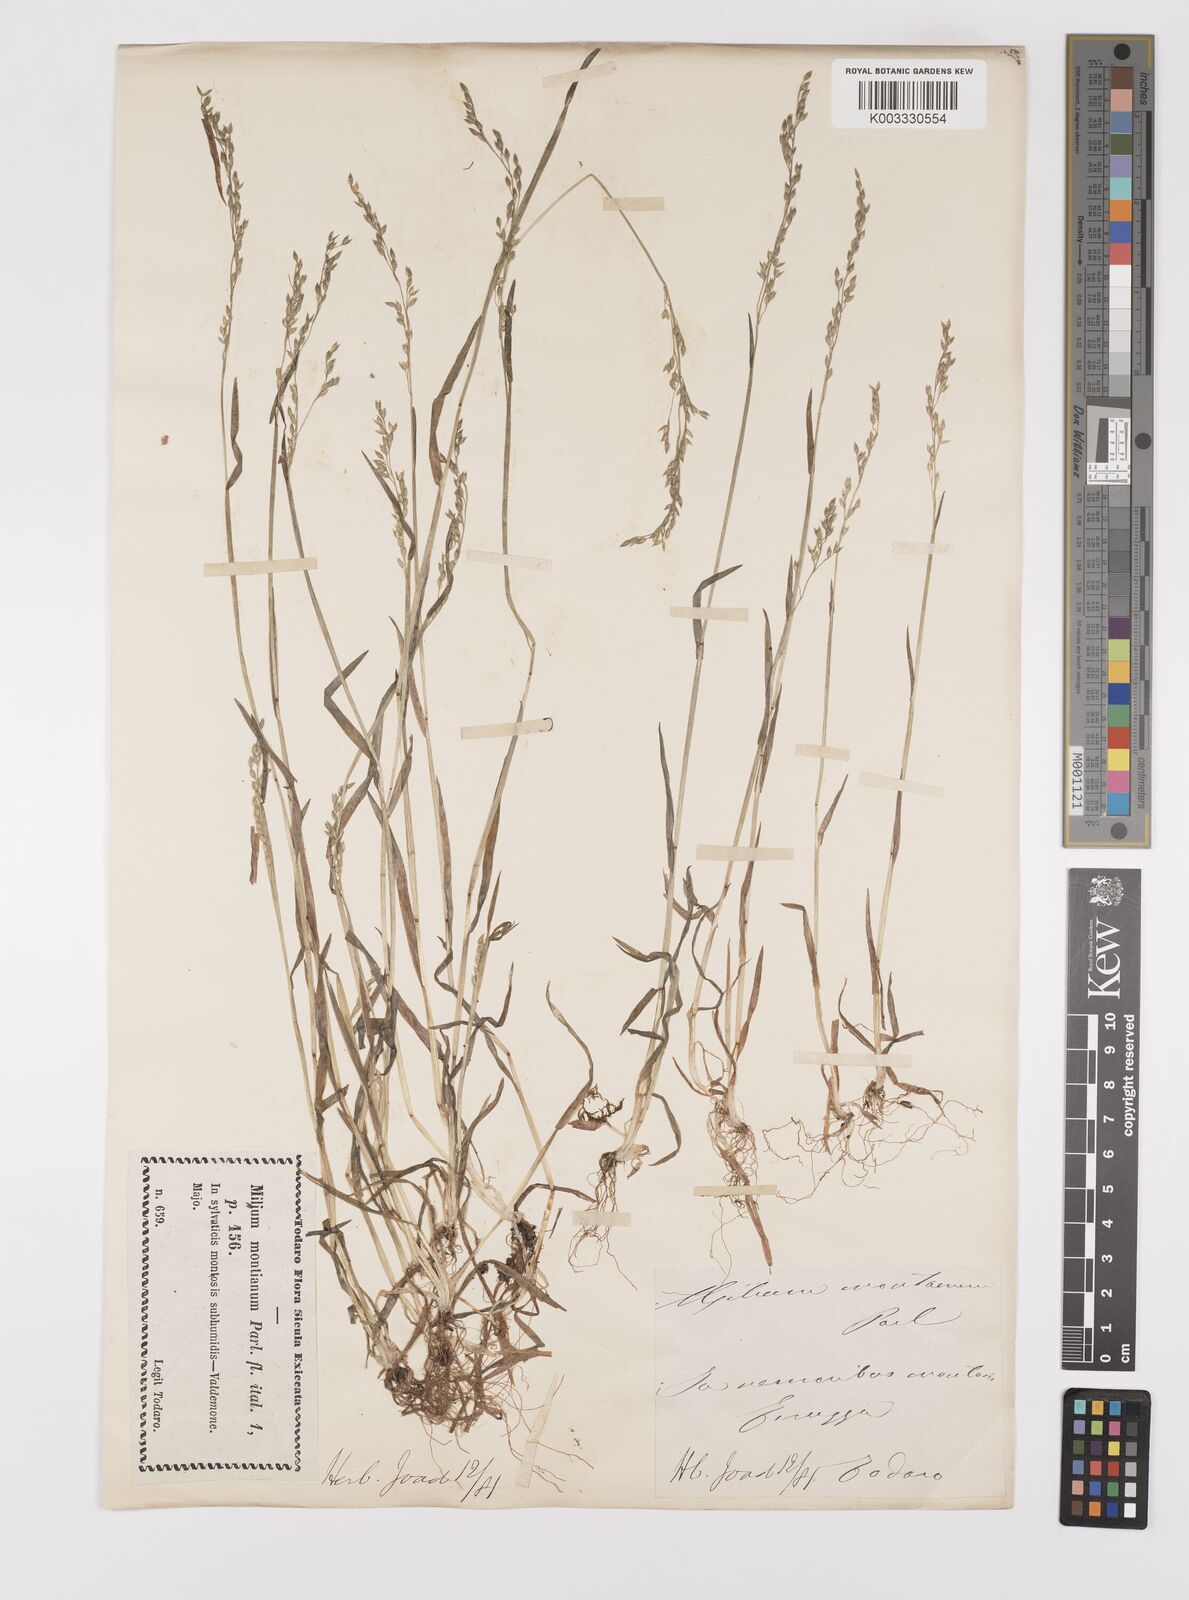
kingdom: Plantae
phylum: Tracheophyta
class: Liliopsida
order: Poales
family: Poaceae
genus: Milium
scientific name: Milium vernale
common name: Early millet
